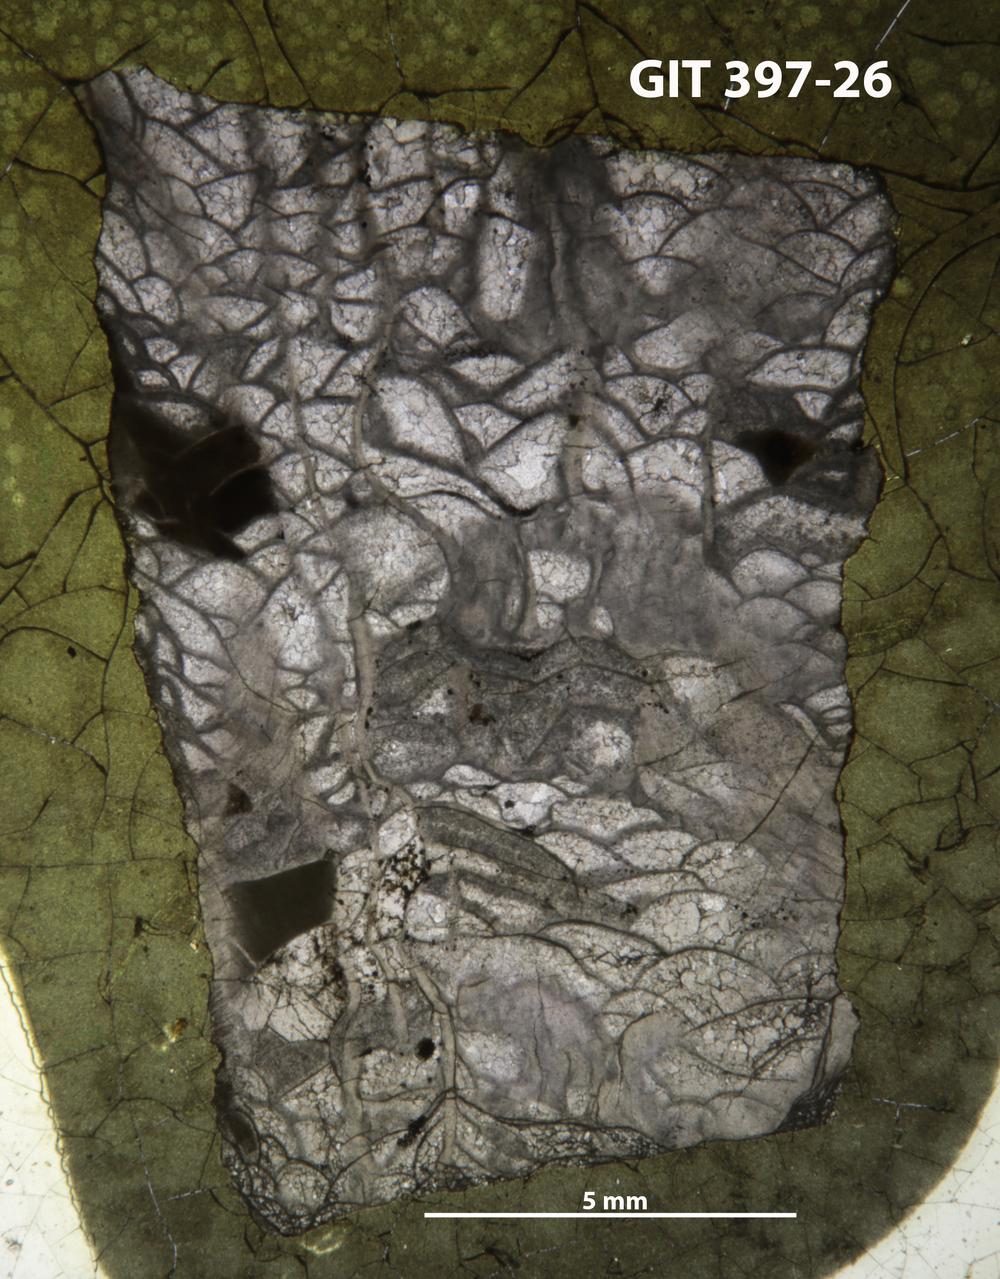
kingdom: Animalia
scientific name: Animalia
